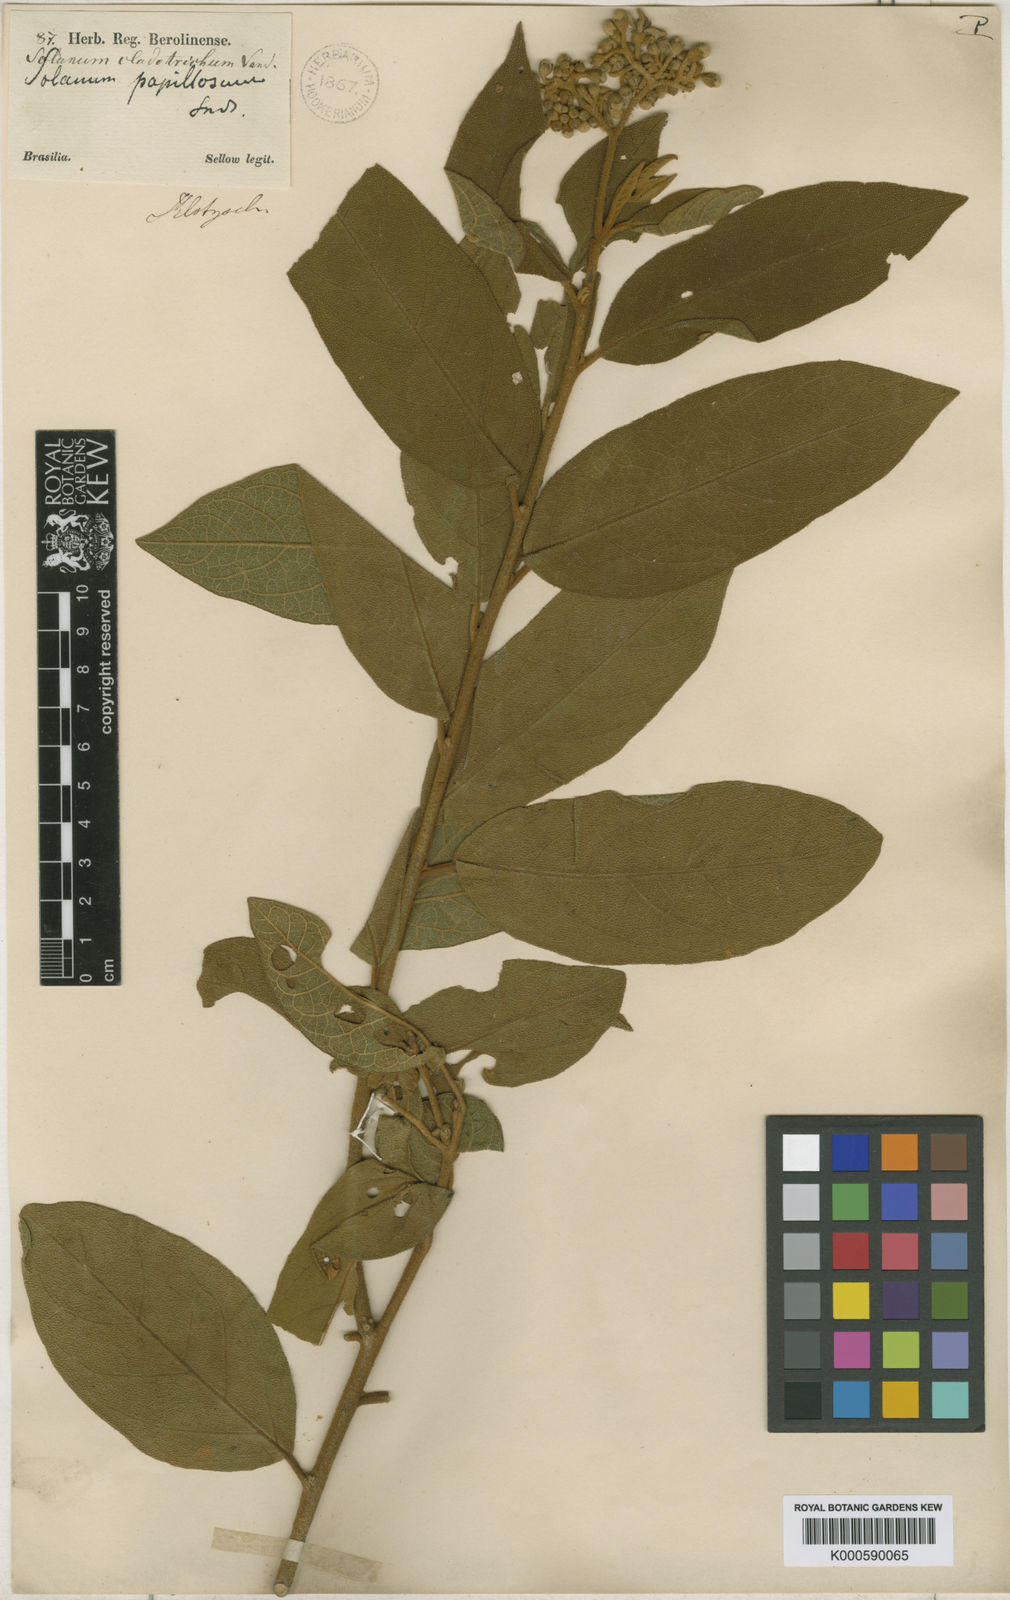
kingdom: Plantae
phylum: Tracheophyta
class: Magnoliopsida
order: Solanales
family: Solanaceae
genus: Solanum
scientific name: Solanum
